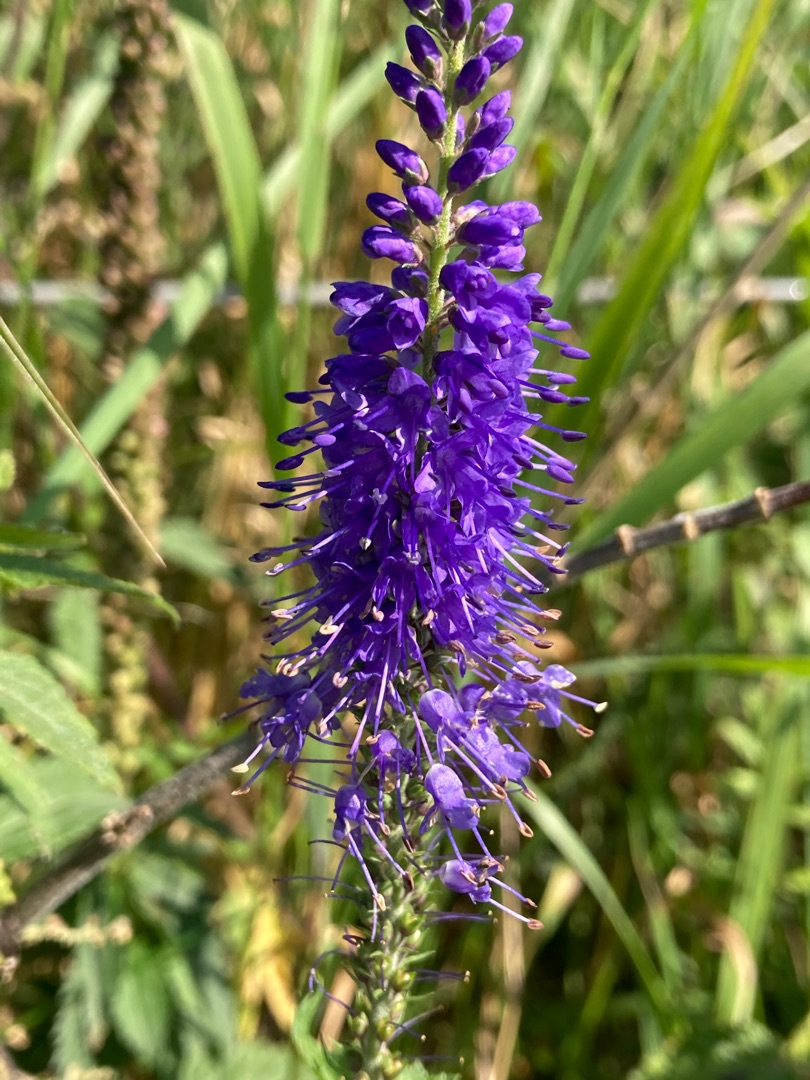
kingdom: Plantae
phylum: Tracheophyta
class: Magnoliopsida
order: Lamiales
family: Plantaginaceae
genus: Veronica
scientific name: Veronica longifolia
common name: Langbladet ærenpris
